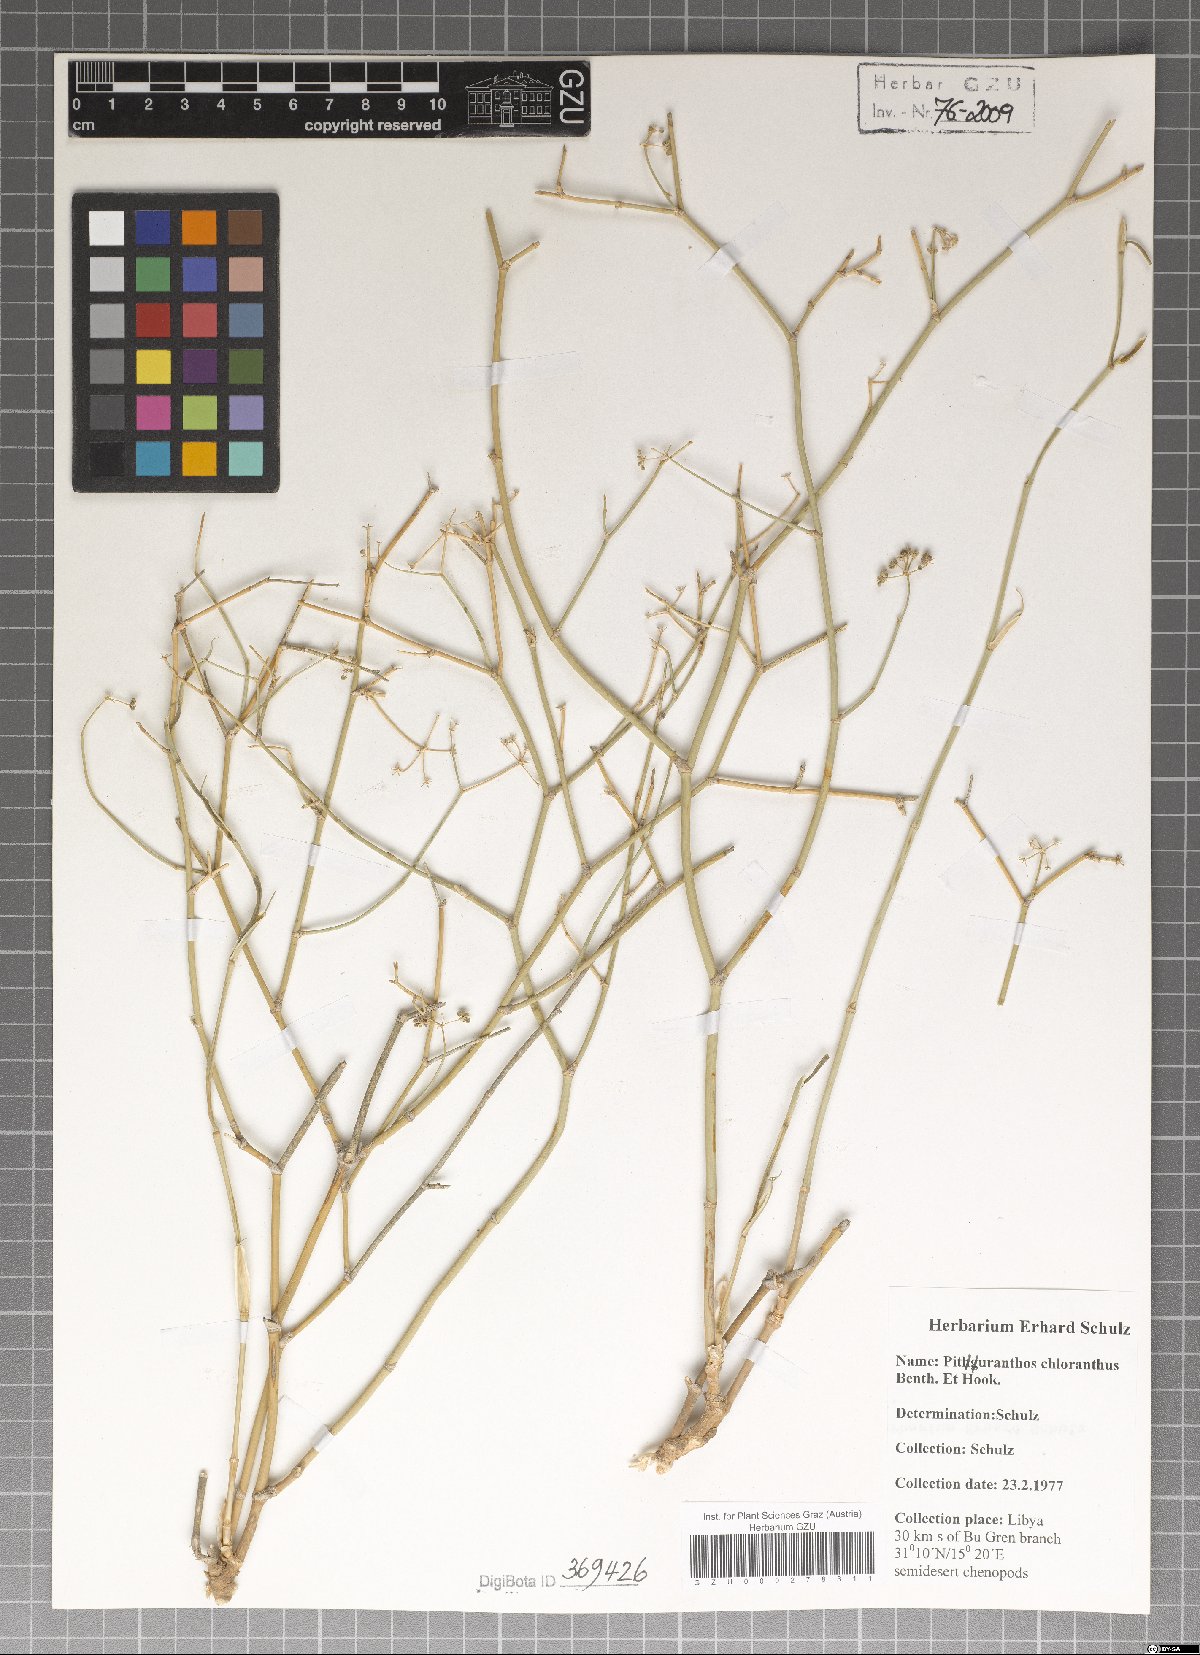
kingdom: Plantae
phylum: Tracheophyta
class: Magnoliopsida
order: Apiales
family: Apiaceae
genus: Deverra
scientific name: Deverra denudata
